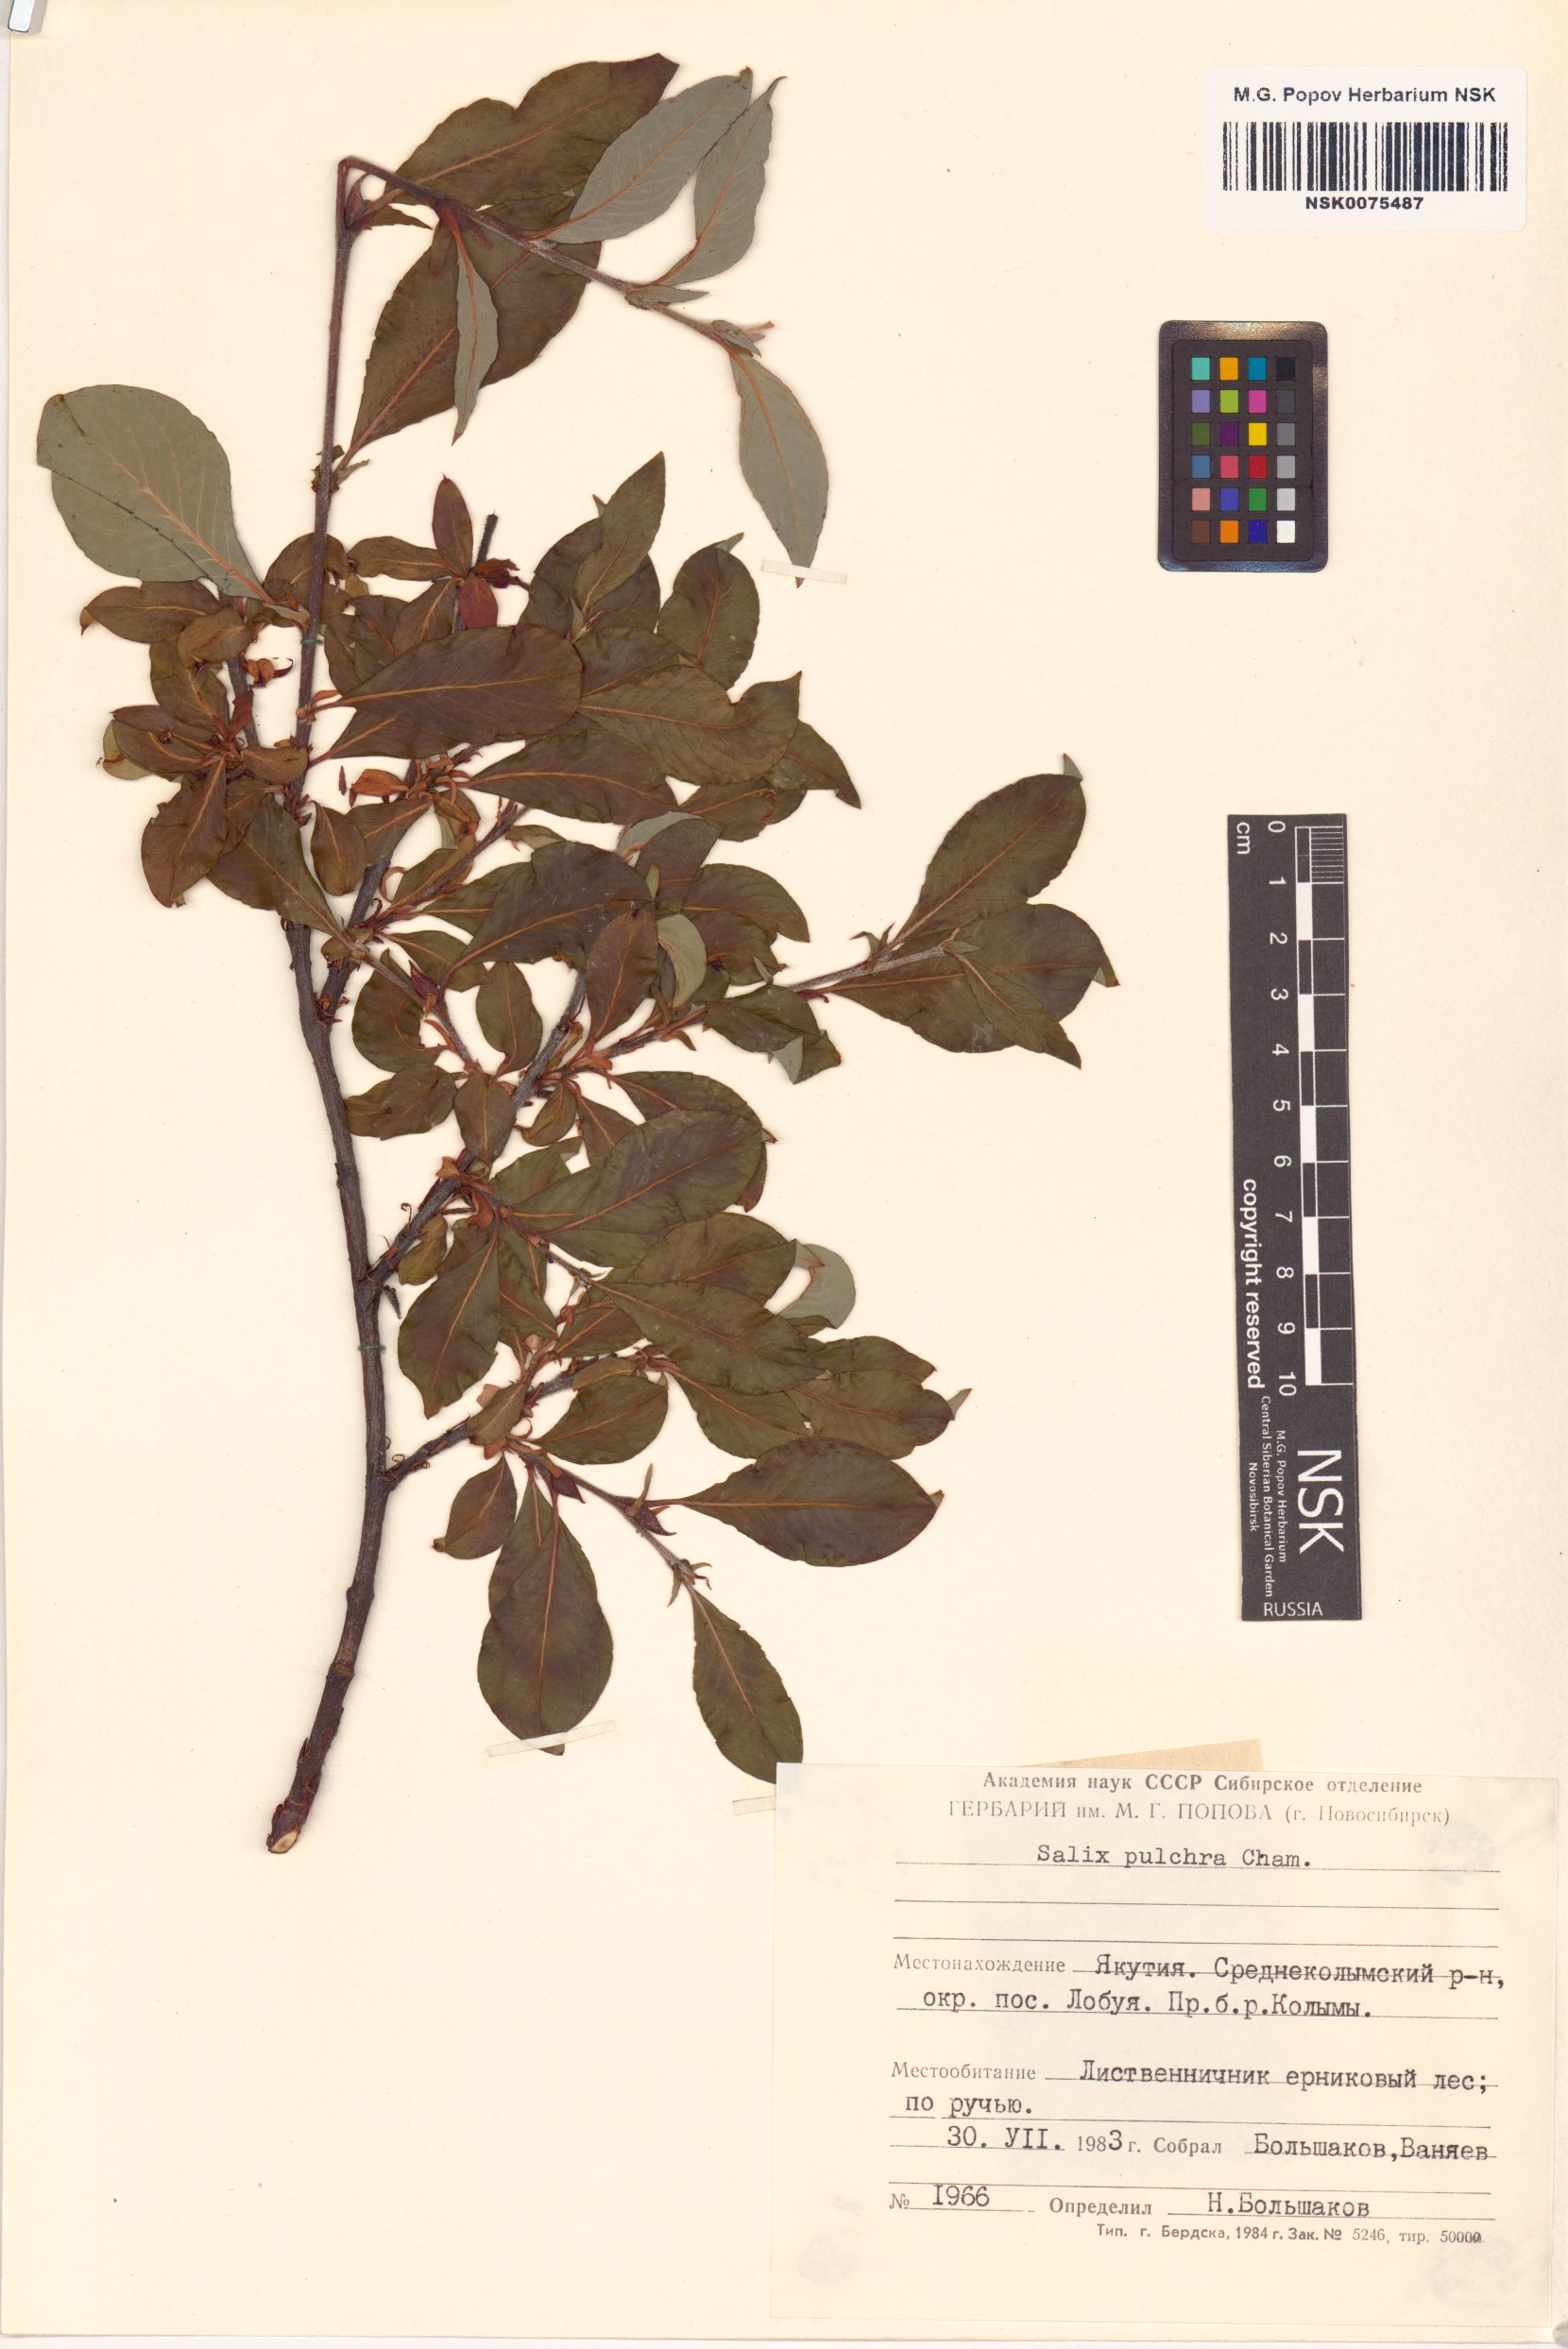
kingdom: Plantae
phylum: Tracheophyta
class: Magnoliopsida
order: Malpighiales
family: Salicaceae
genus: Salix
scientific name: Salix pulchra
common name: Diamond-leaved willow
